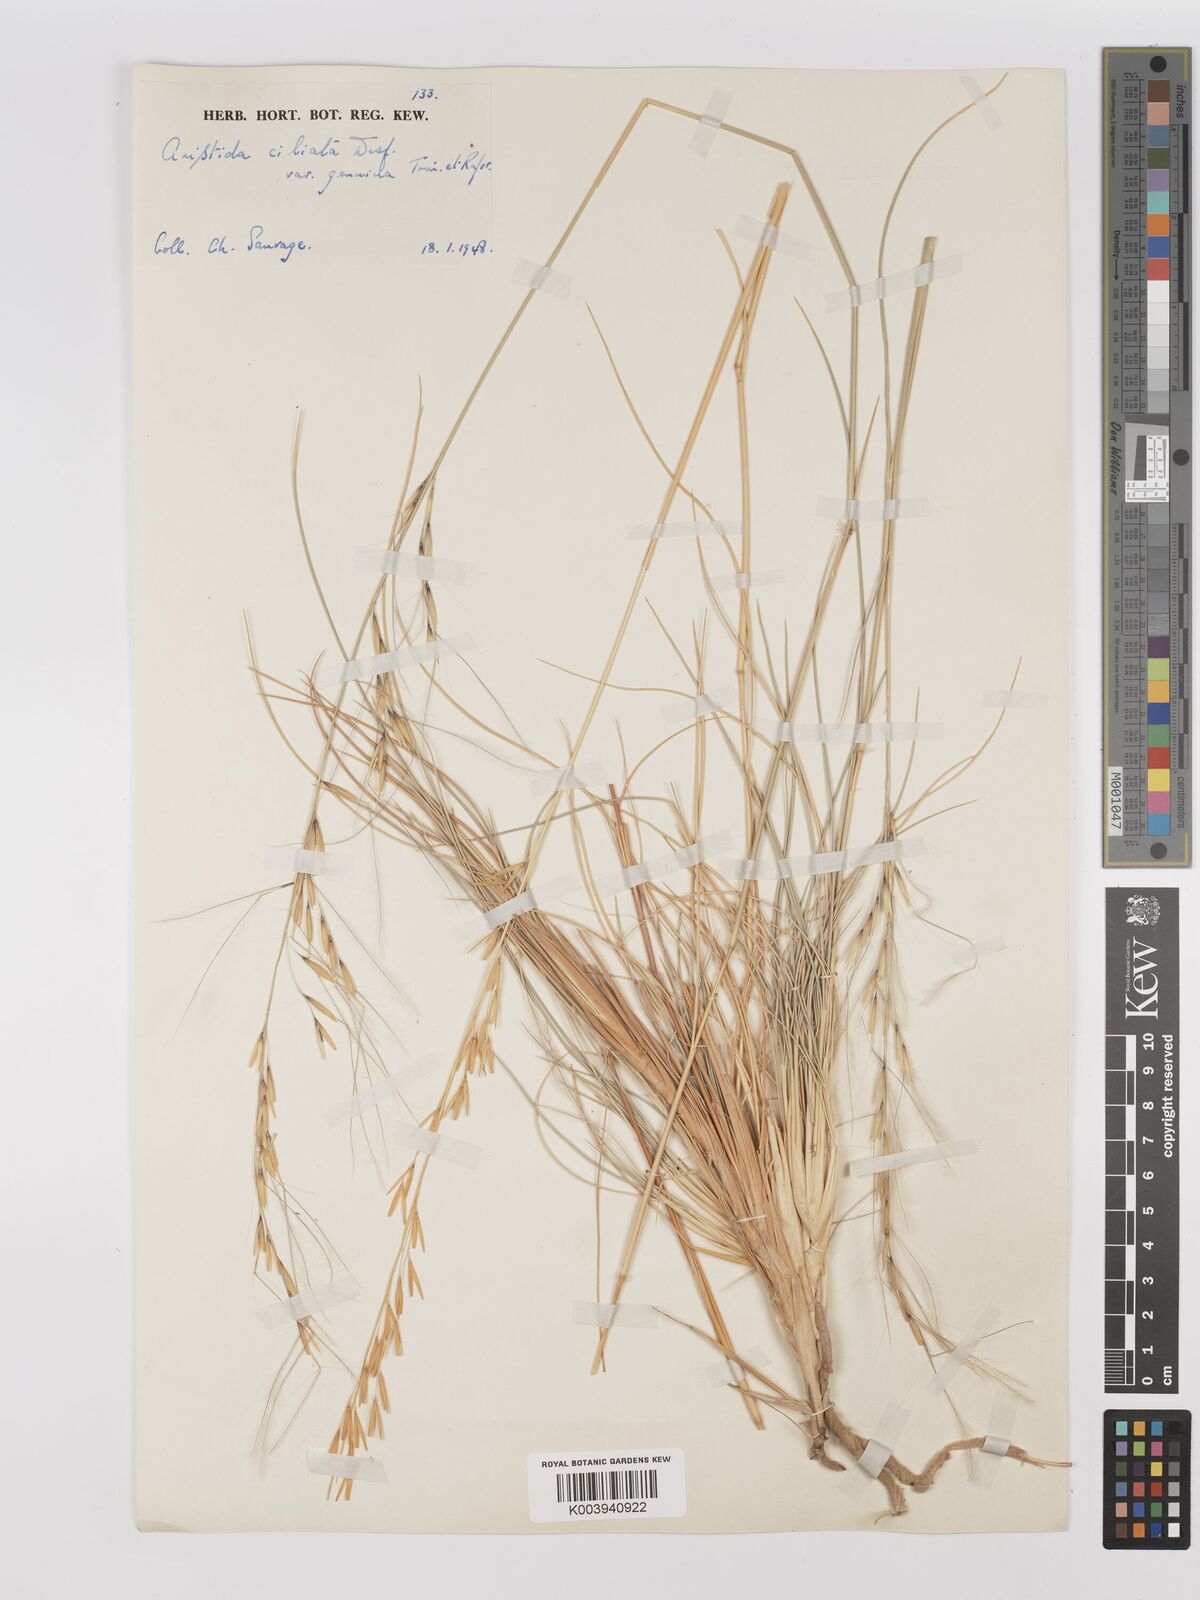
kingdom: Plantae
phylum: Tracheophyta
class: Liliopsida
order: Poales
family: Poaceae
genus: Stipagrostis
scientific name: Stipagrostis ciliata
